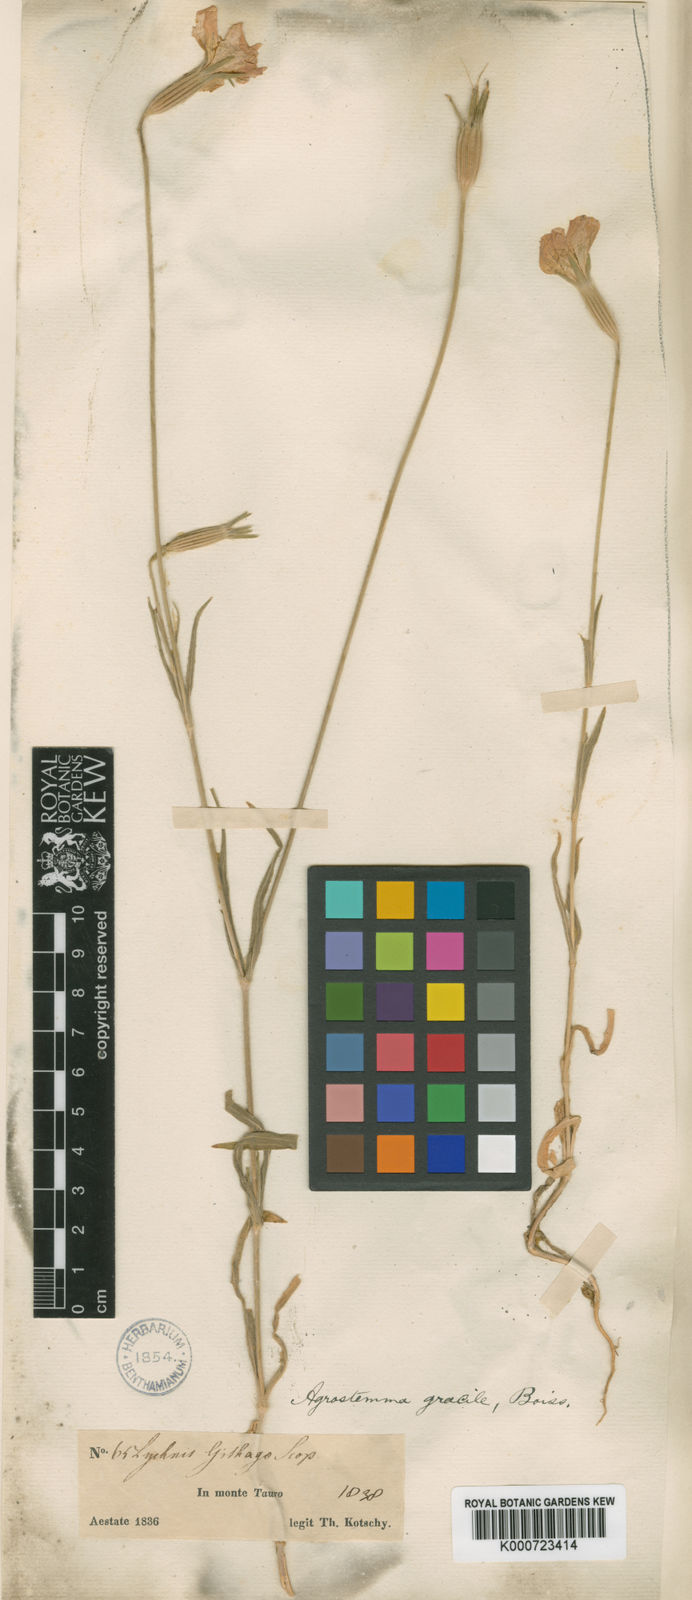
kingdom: Plantae
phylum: Tracheophyta
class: Magnoliopsida
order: Caryophyllales
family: Caryophyllaceae
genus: Agrostemma
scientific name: Agrostemma brachyloba
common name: Narrow corncockle
